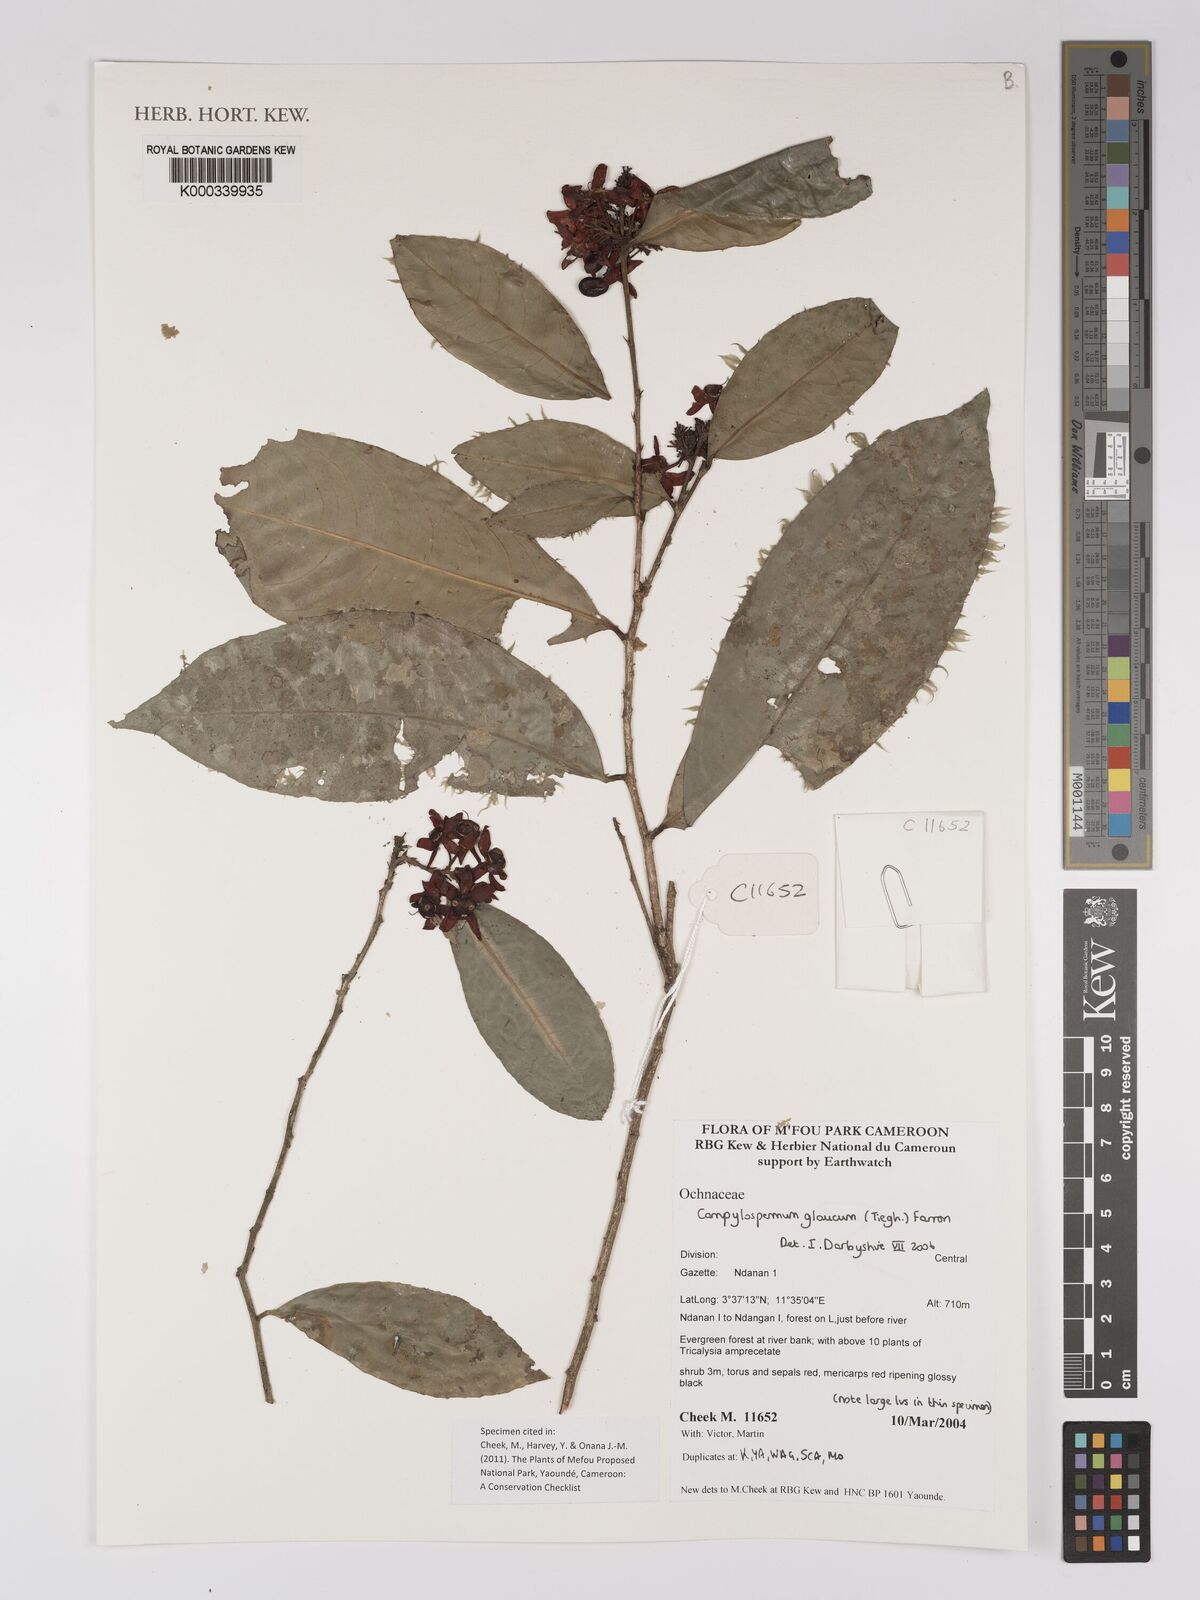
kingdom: Plantae
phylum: Tracheophyta
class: Magnoliopsida
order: Malpighiales
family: Ochnaceae
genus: Campylospermum
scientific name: Campylospermum glaucum
